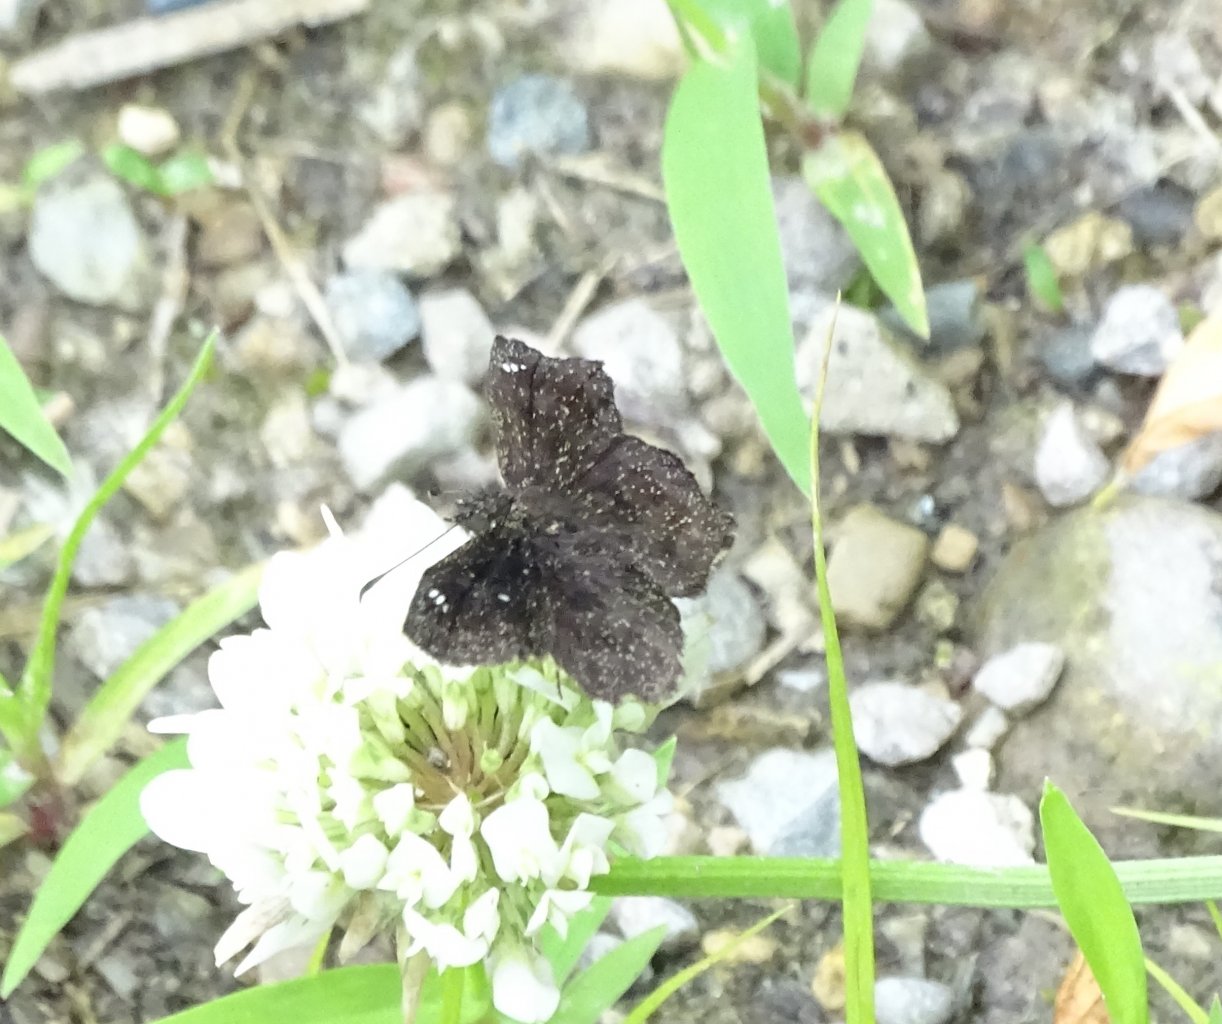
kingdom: Animalia
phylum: Arthropoda
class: Insecta
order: Lepidoptera
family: Hesperiidae
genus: Staphylus
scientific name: Staphylus mazans
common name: Hayhurst's Scallopwing
